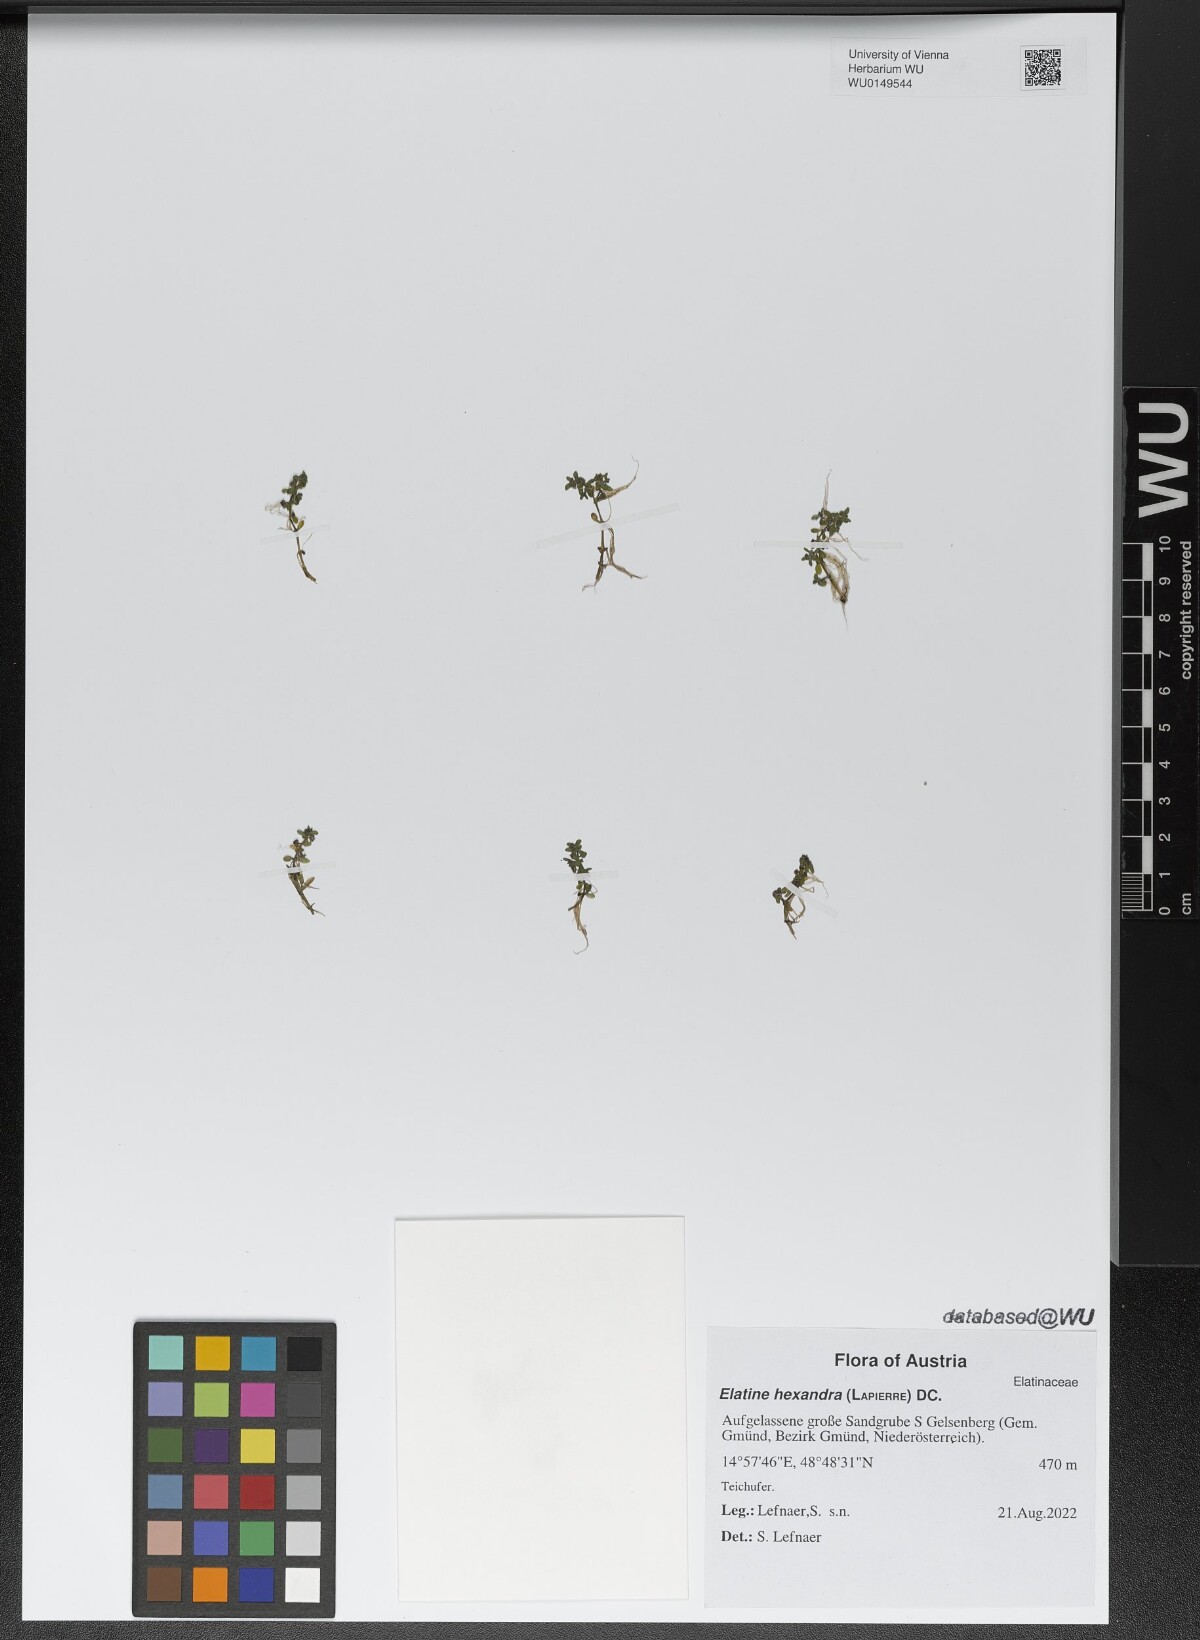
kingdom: Plantae
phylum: Tracheophyta
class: Magnoliopsida
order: Malpighiales
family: Elatinaceae
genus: Elatine
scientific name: Elatine hexandra
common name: Six-stamened waterwort
